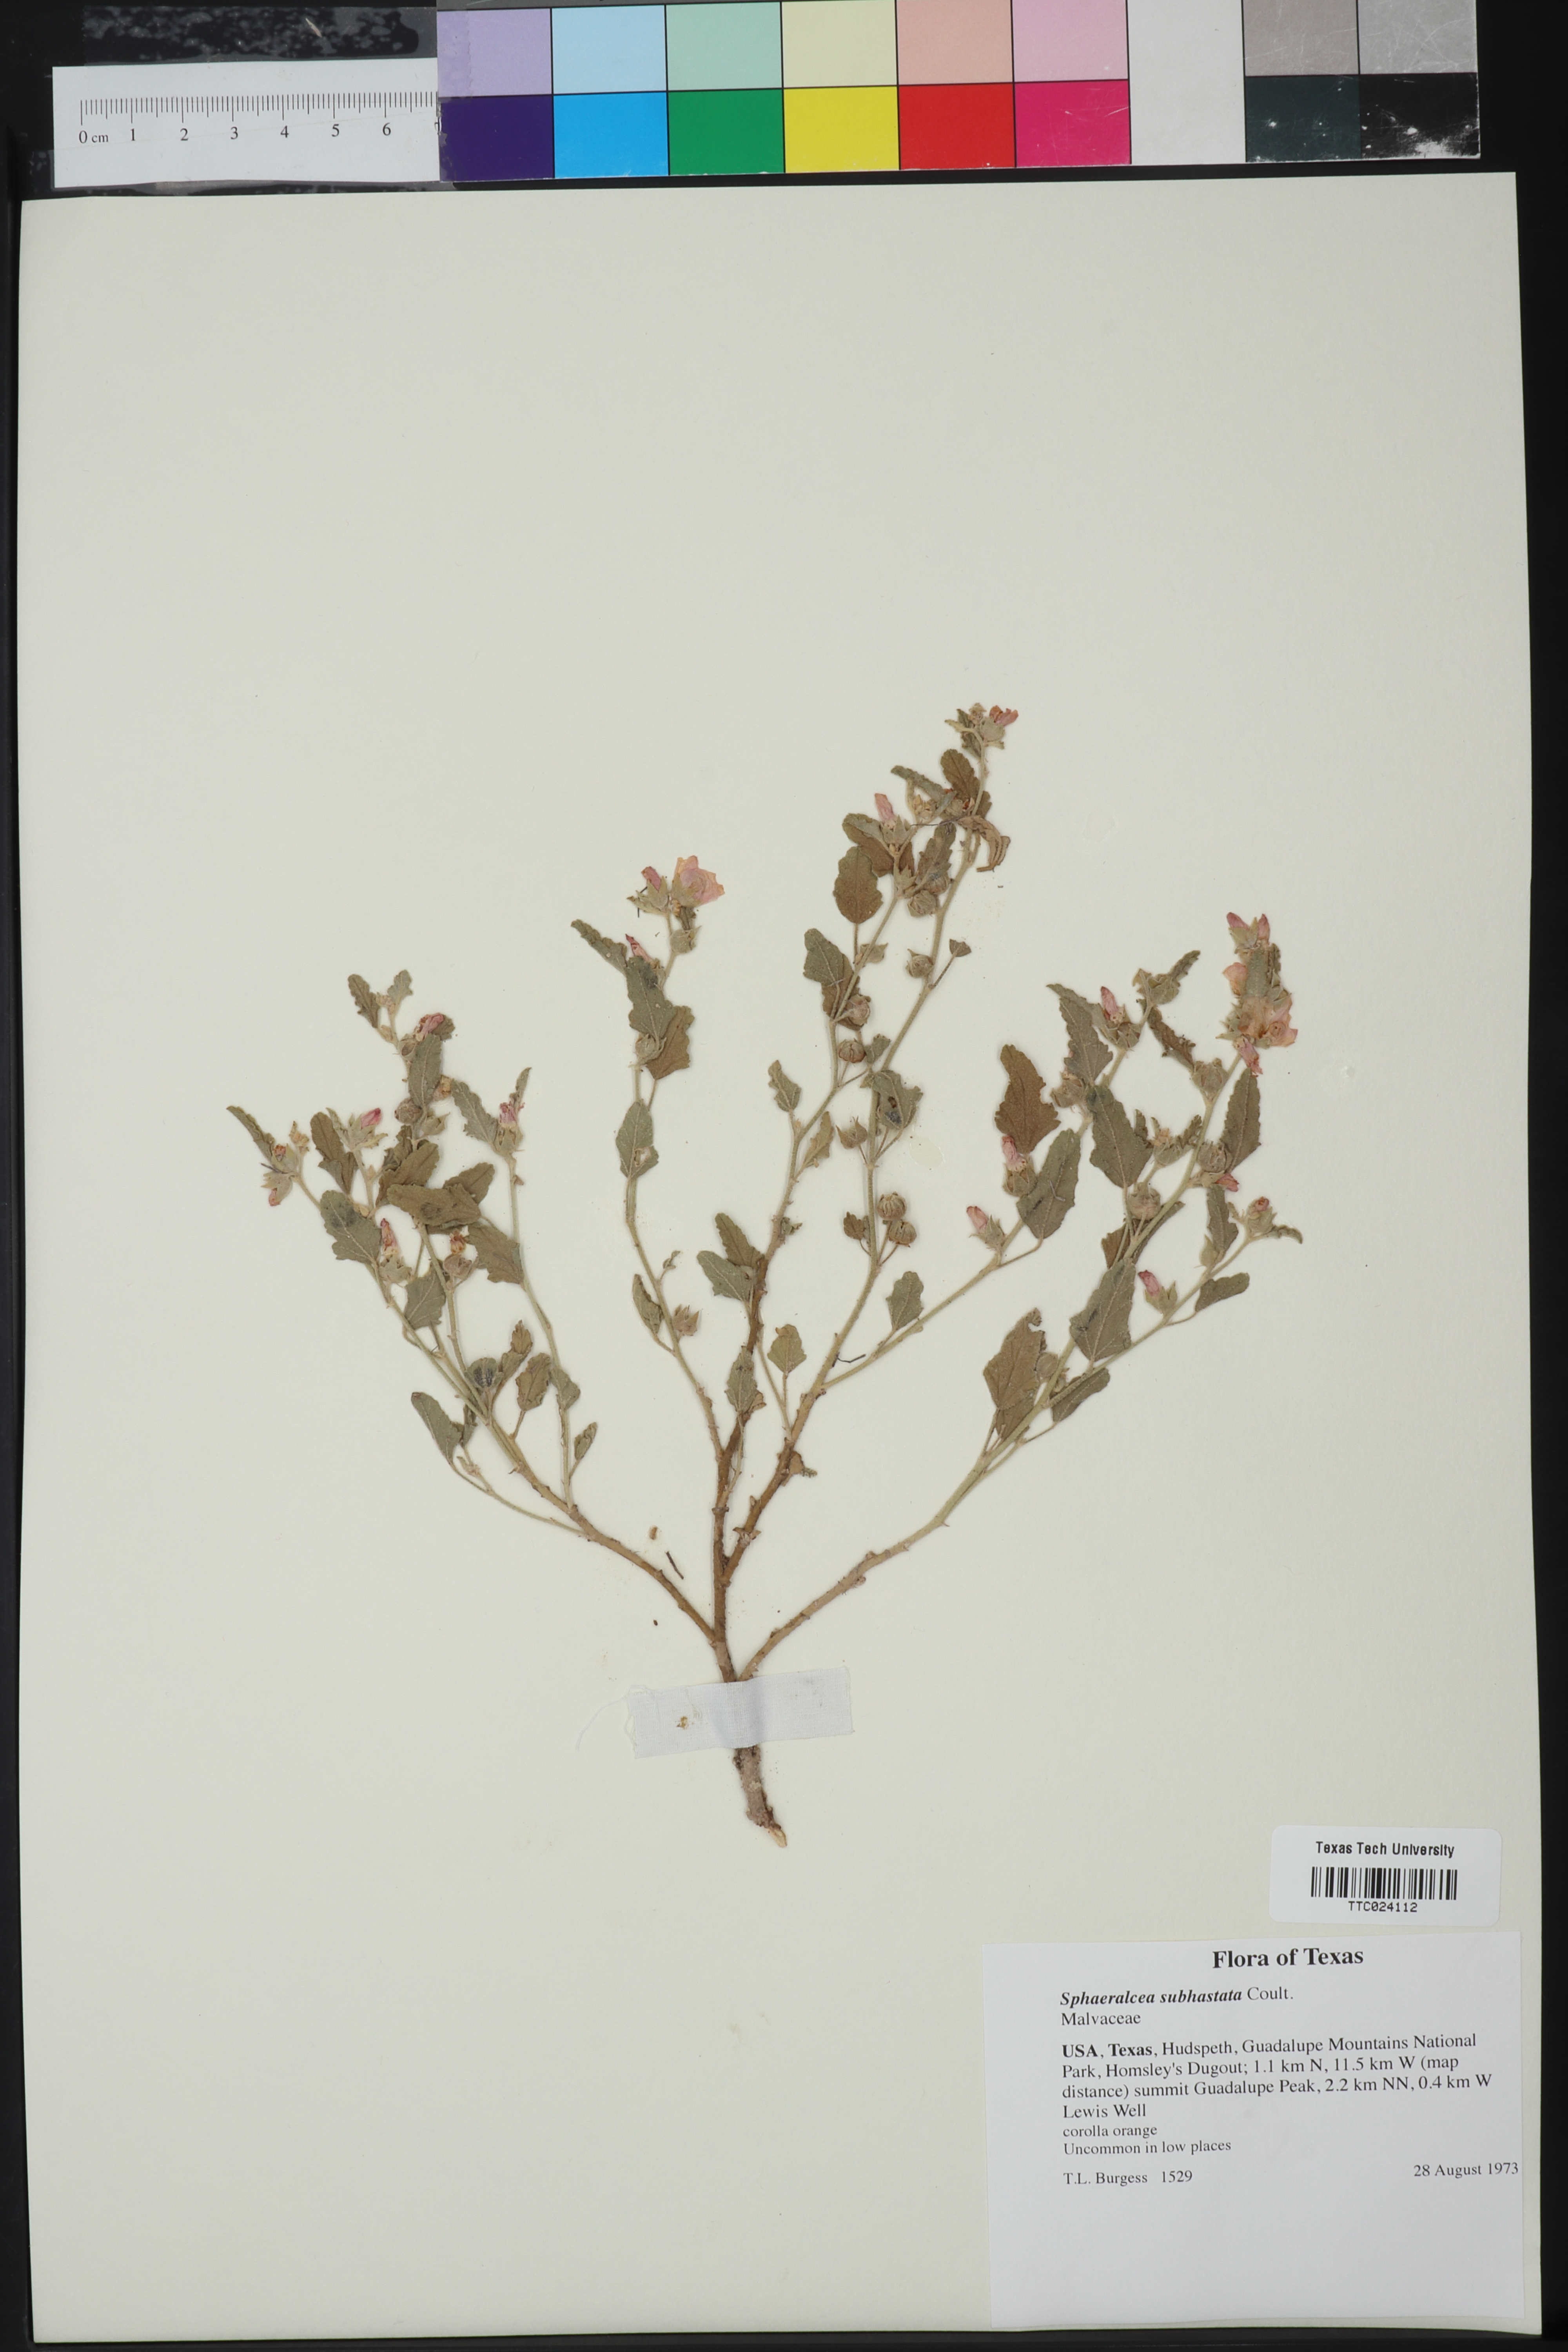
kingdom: Plantae
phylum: Tracheophyta
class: Magnoliopsida
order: Malvales
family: Malvaceae
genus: Sphaeralcea
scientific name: Sphaeralcea hastulata
